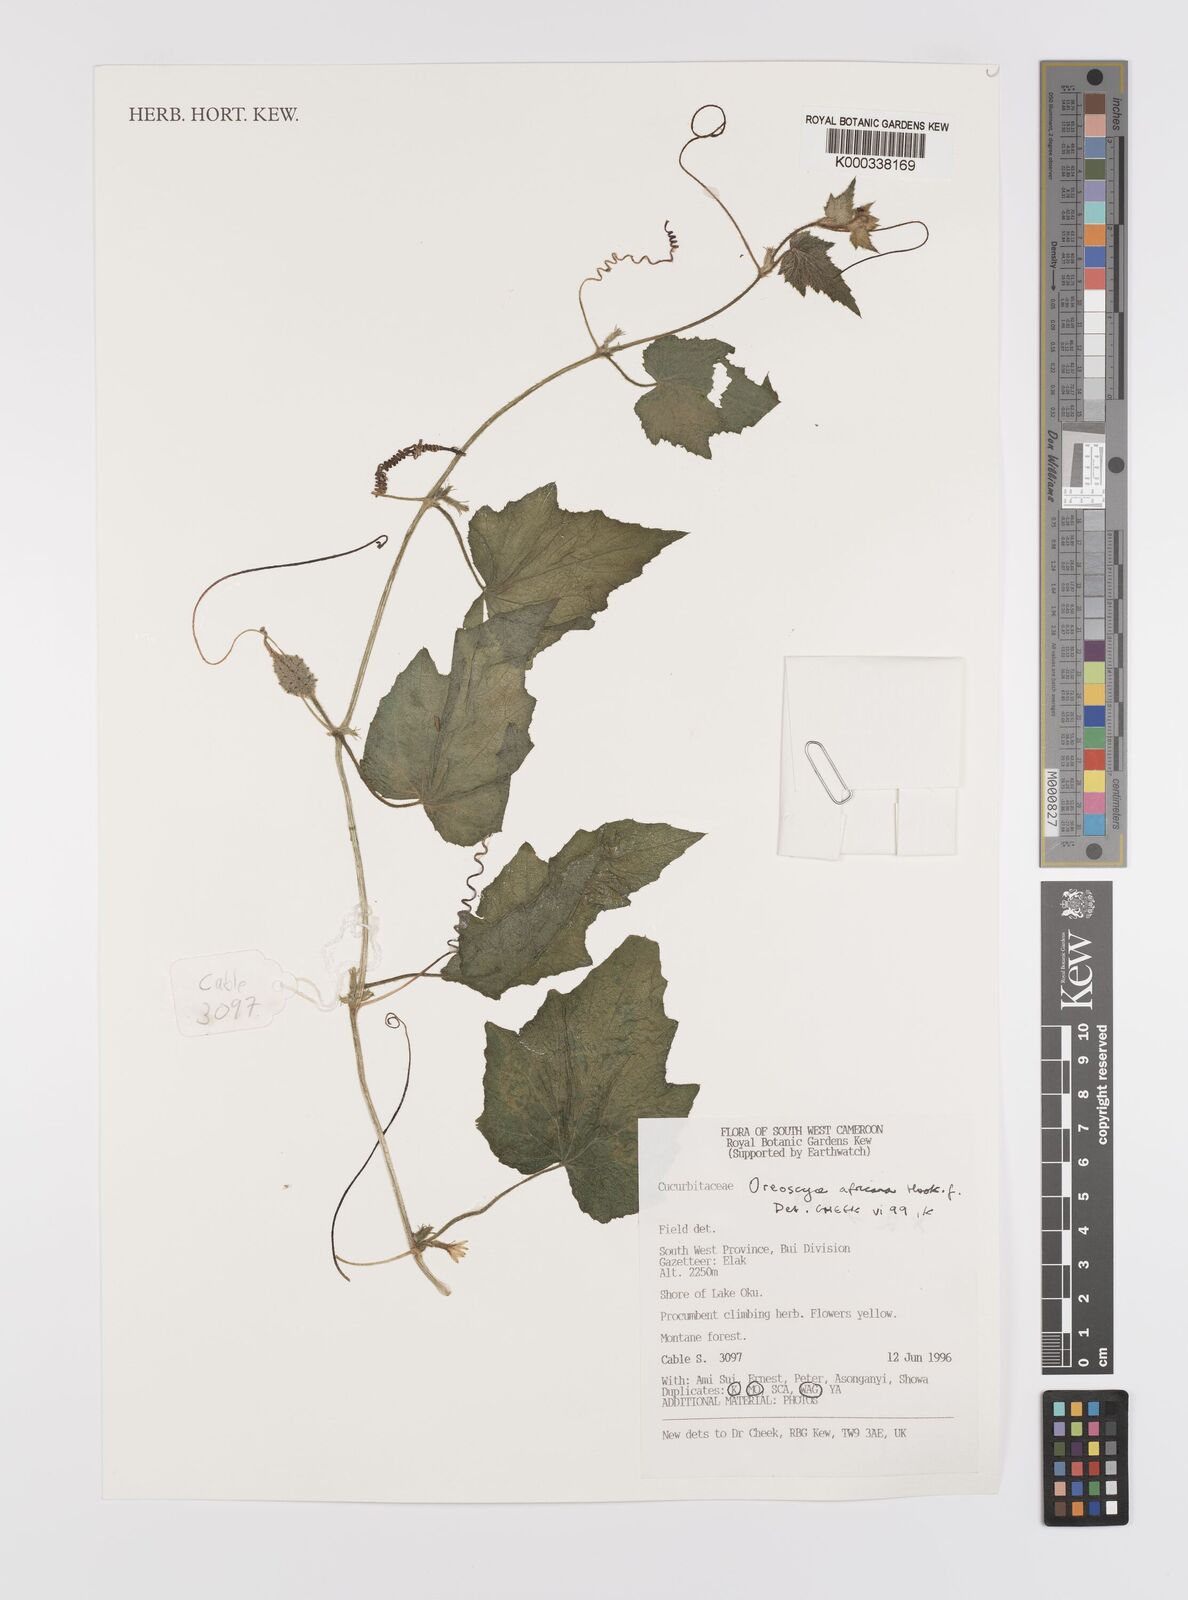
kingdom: Plantae
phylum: Tracheophyta
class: Magnoliopsida
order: Cucurbitales
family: Cucurbitaceae
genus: Cucumis
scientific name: Cucumis oreosyce
